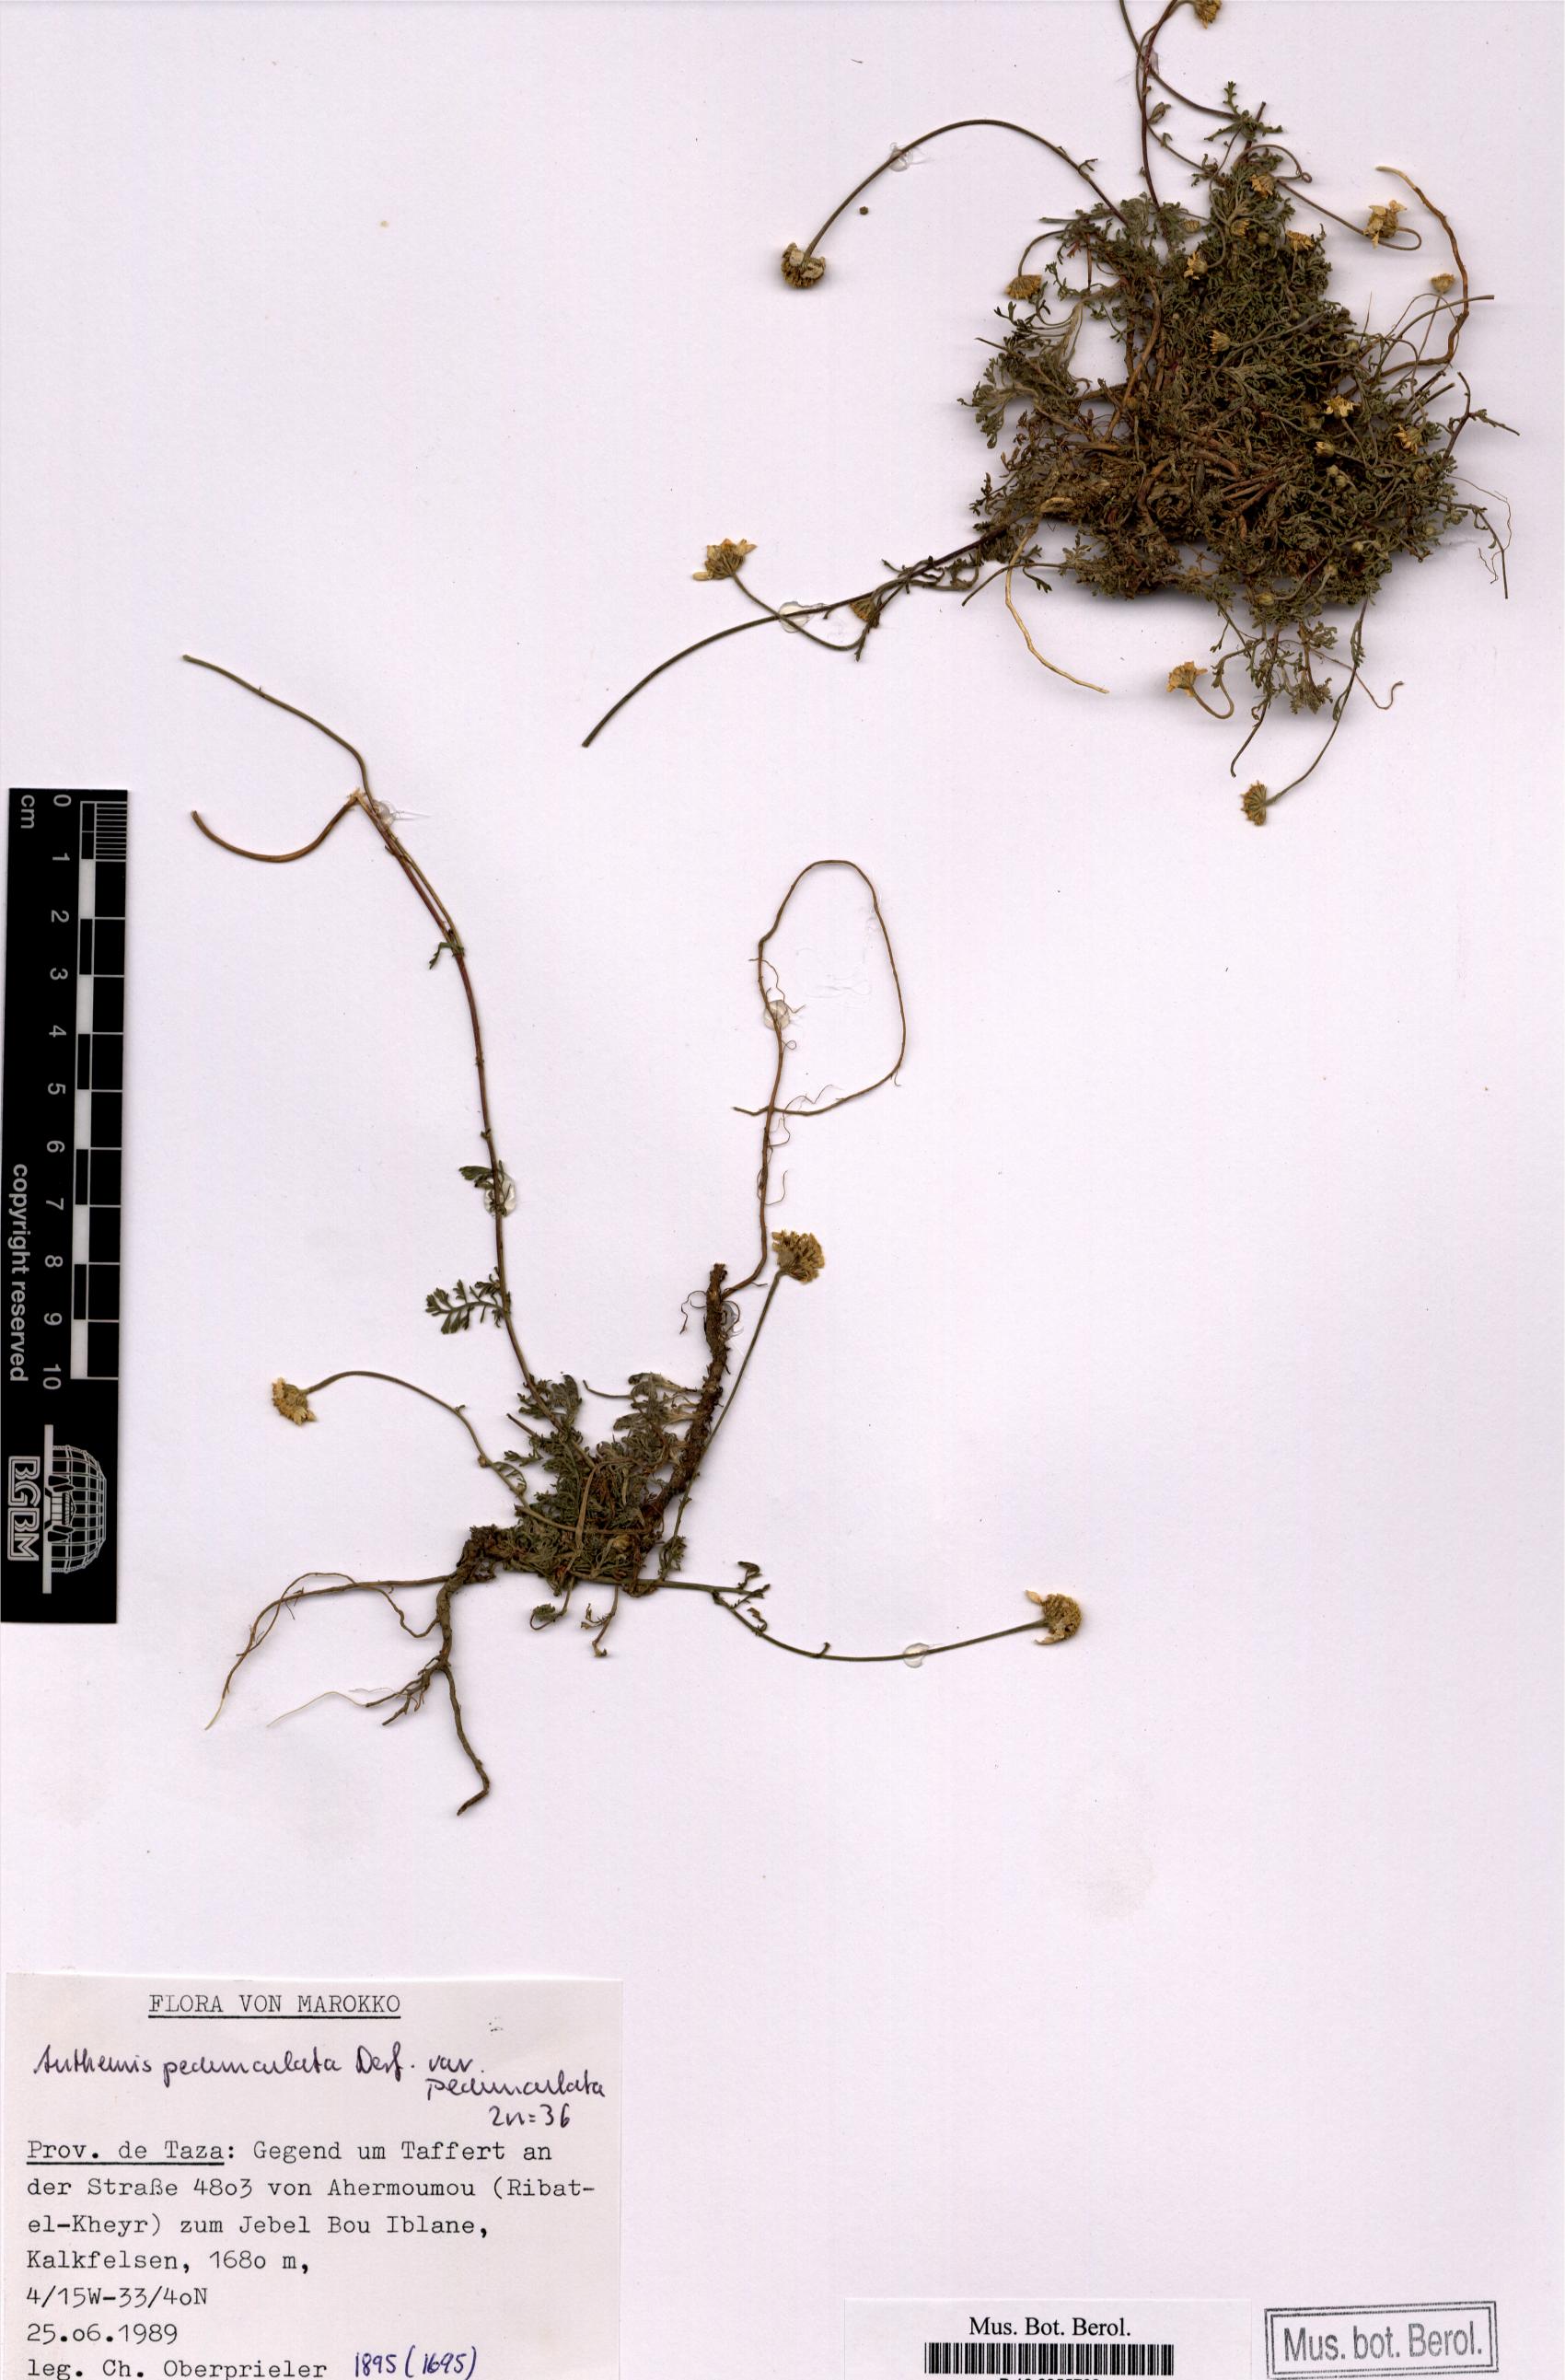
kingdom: Plantae
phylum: Tracheophyta
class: Magnoliopsida
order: Asterales
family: Asteraceae
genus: Anthemis
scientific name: Anthemis pedunculata
